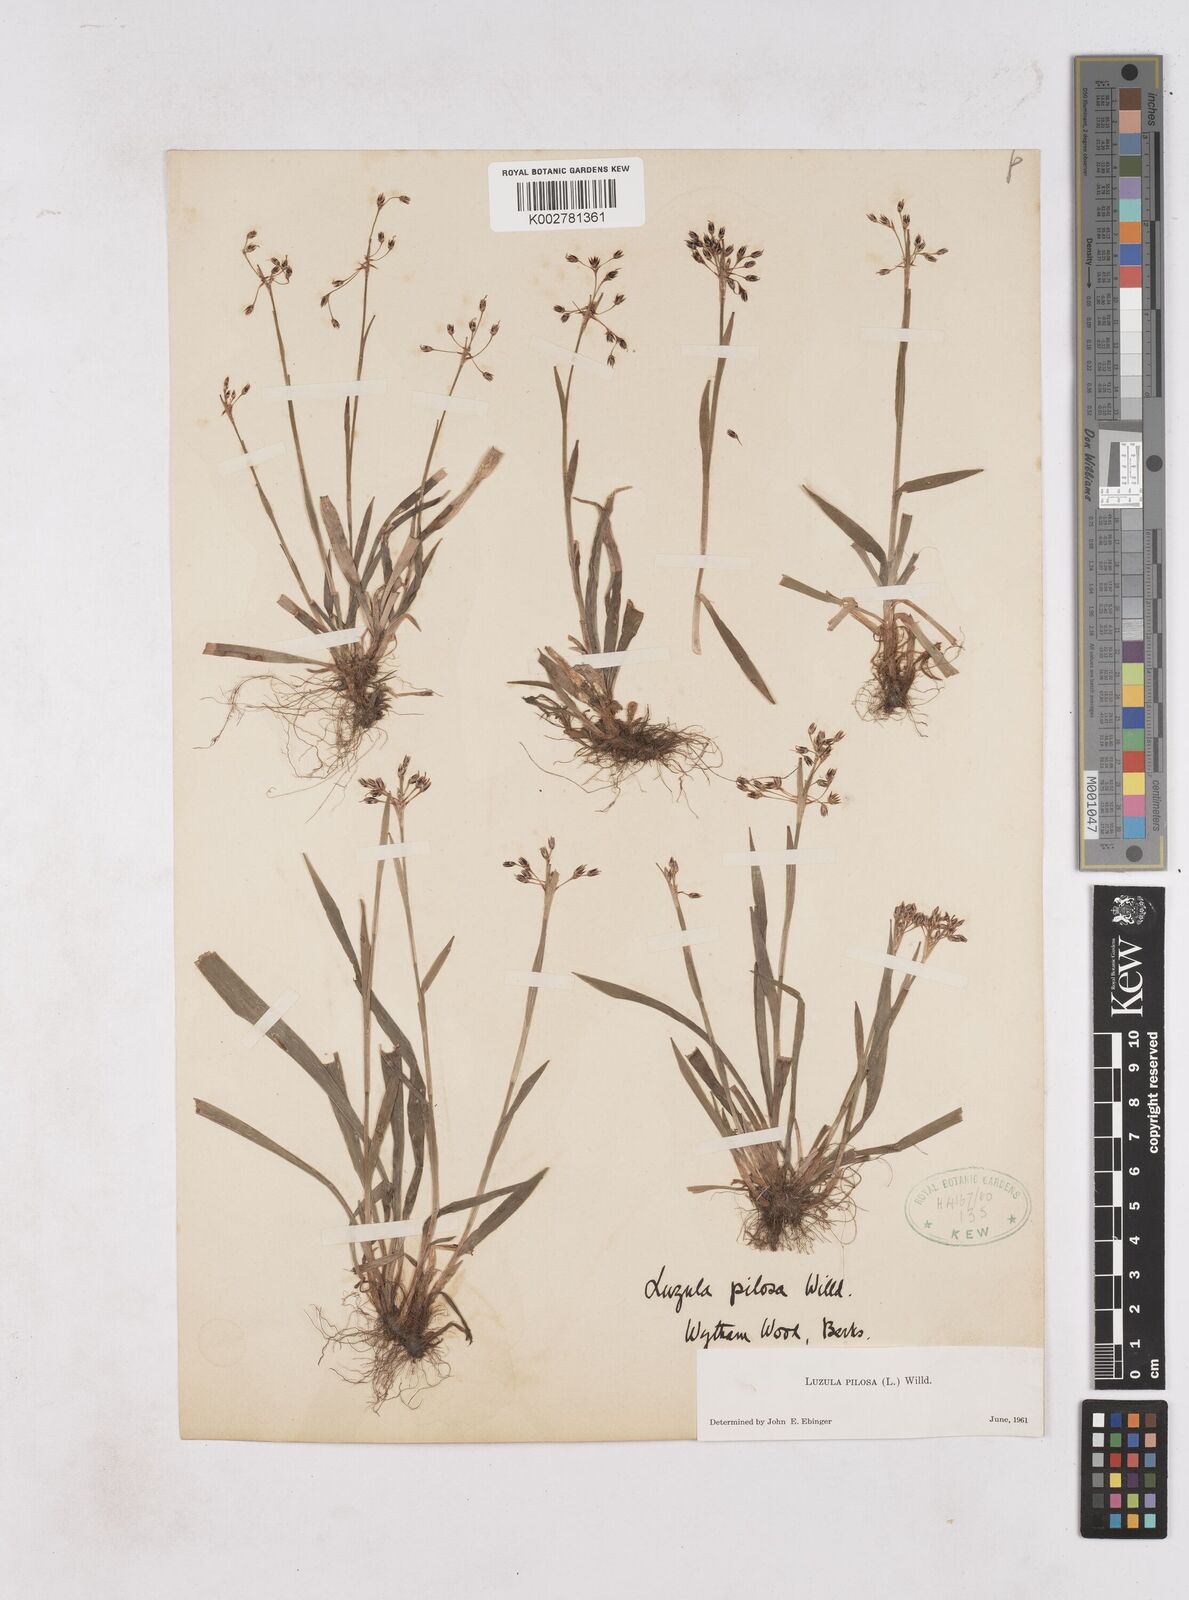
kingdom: Plantae
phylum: Tracheophyta
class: Liliopsida
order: Poales
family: Juncaceae
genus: Luzula
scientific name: Luzula pilosa
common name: Hairy wood-rush
